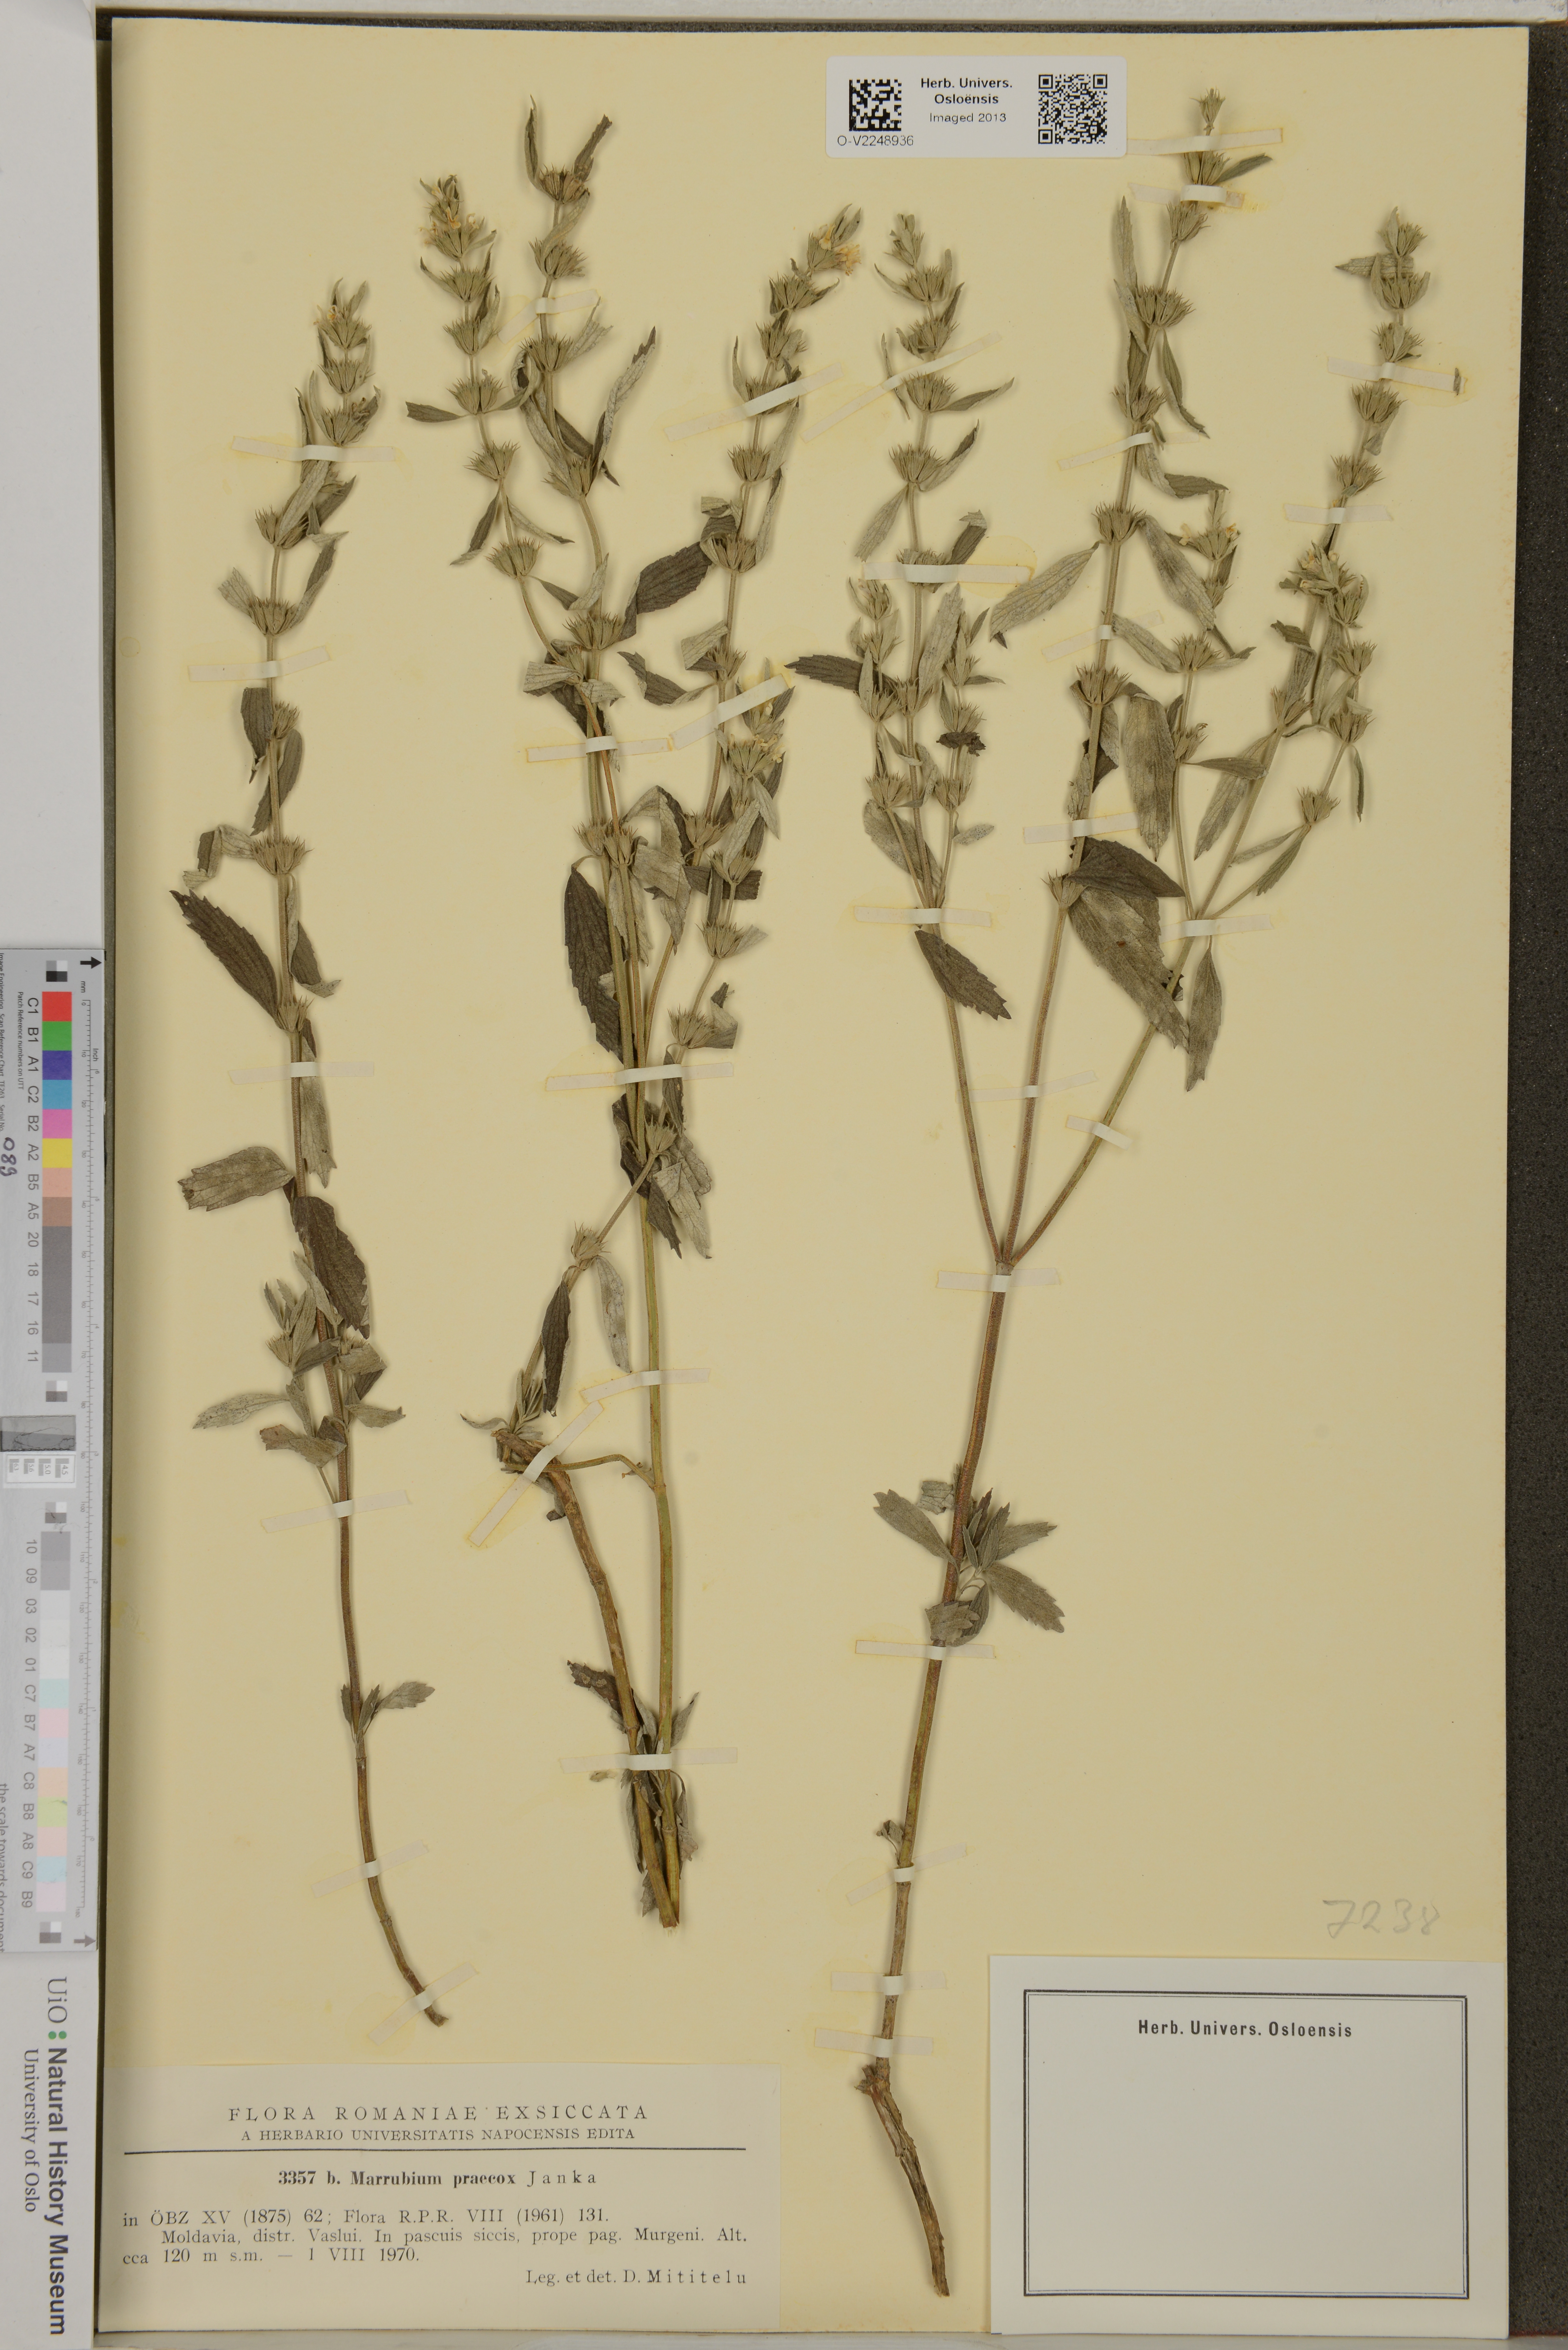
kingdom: Plantae
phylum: Tracheophyta
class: Magnoliopsida
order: Lamiales
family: Lamiaceae
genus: Marrubium
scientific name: Marrubium peregrinum
